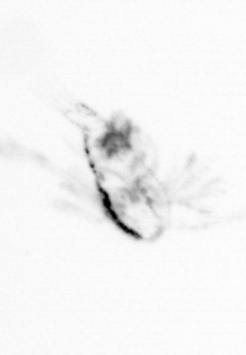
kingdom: Animalia
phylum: Arthropoda
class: Copepoda
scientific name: Copepoda
